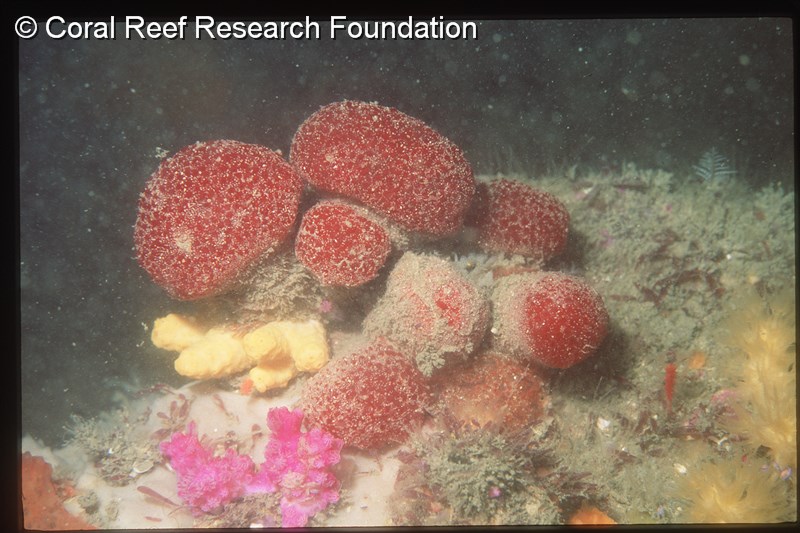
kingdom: Animalia
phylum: Chordata
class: Ascidiacea
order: Aplousobranchia
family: Polyclinidae
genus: Aplidiopsis
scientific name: Aplidiopsis tubiferus
